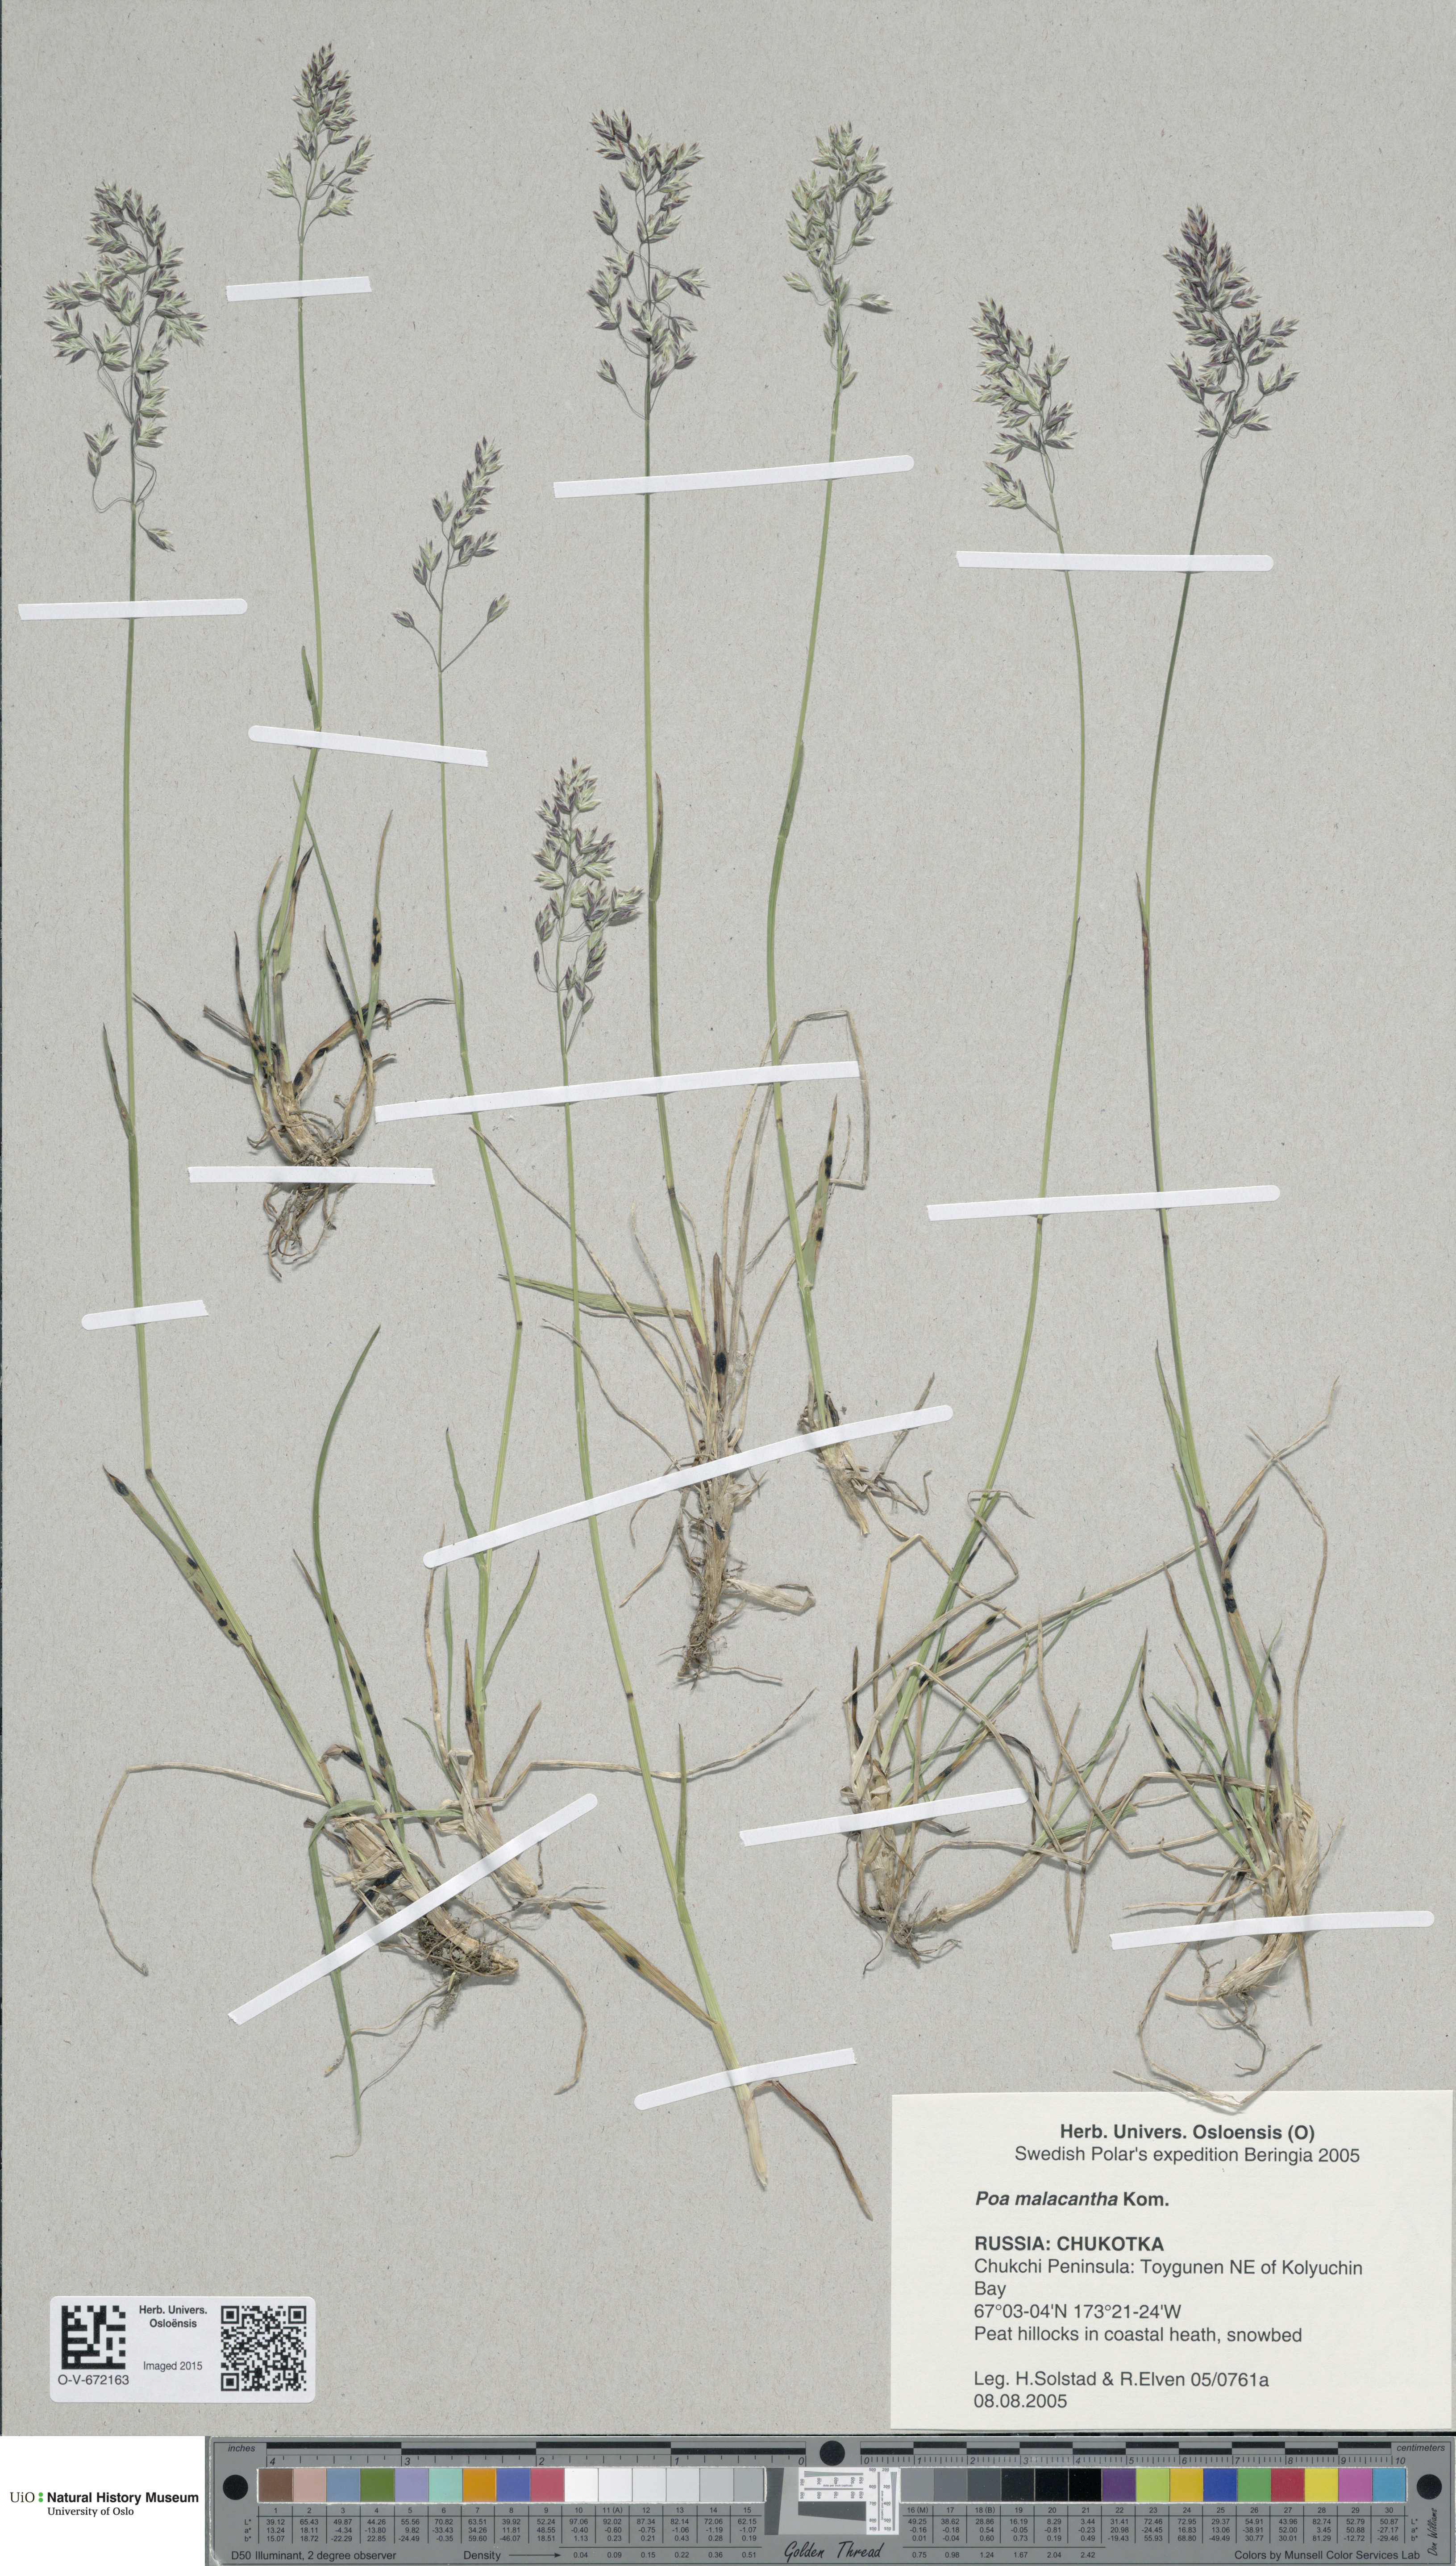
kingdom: Plantae
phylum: Tracheophyta
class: Liliopsida
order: Poales
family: Poaceae
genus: Poa
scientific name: Poa lanata
